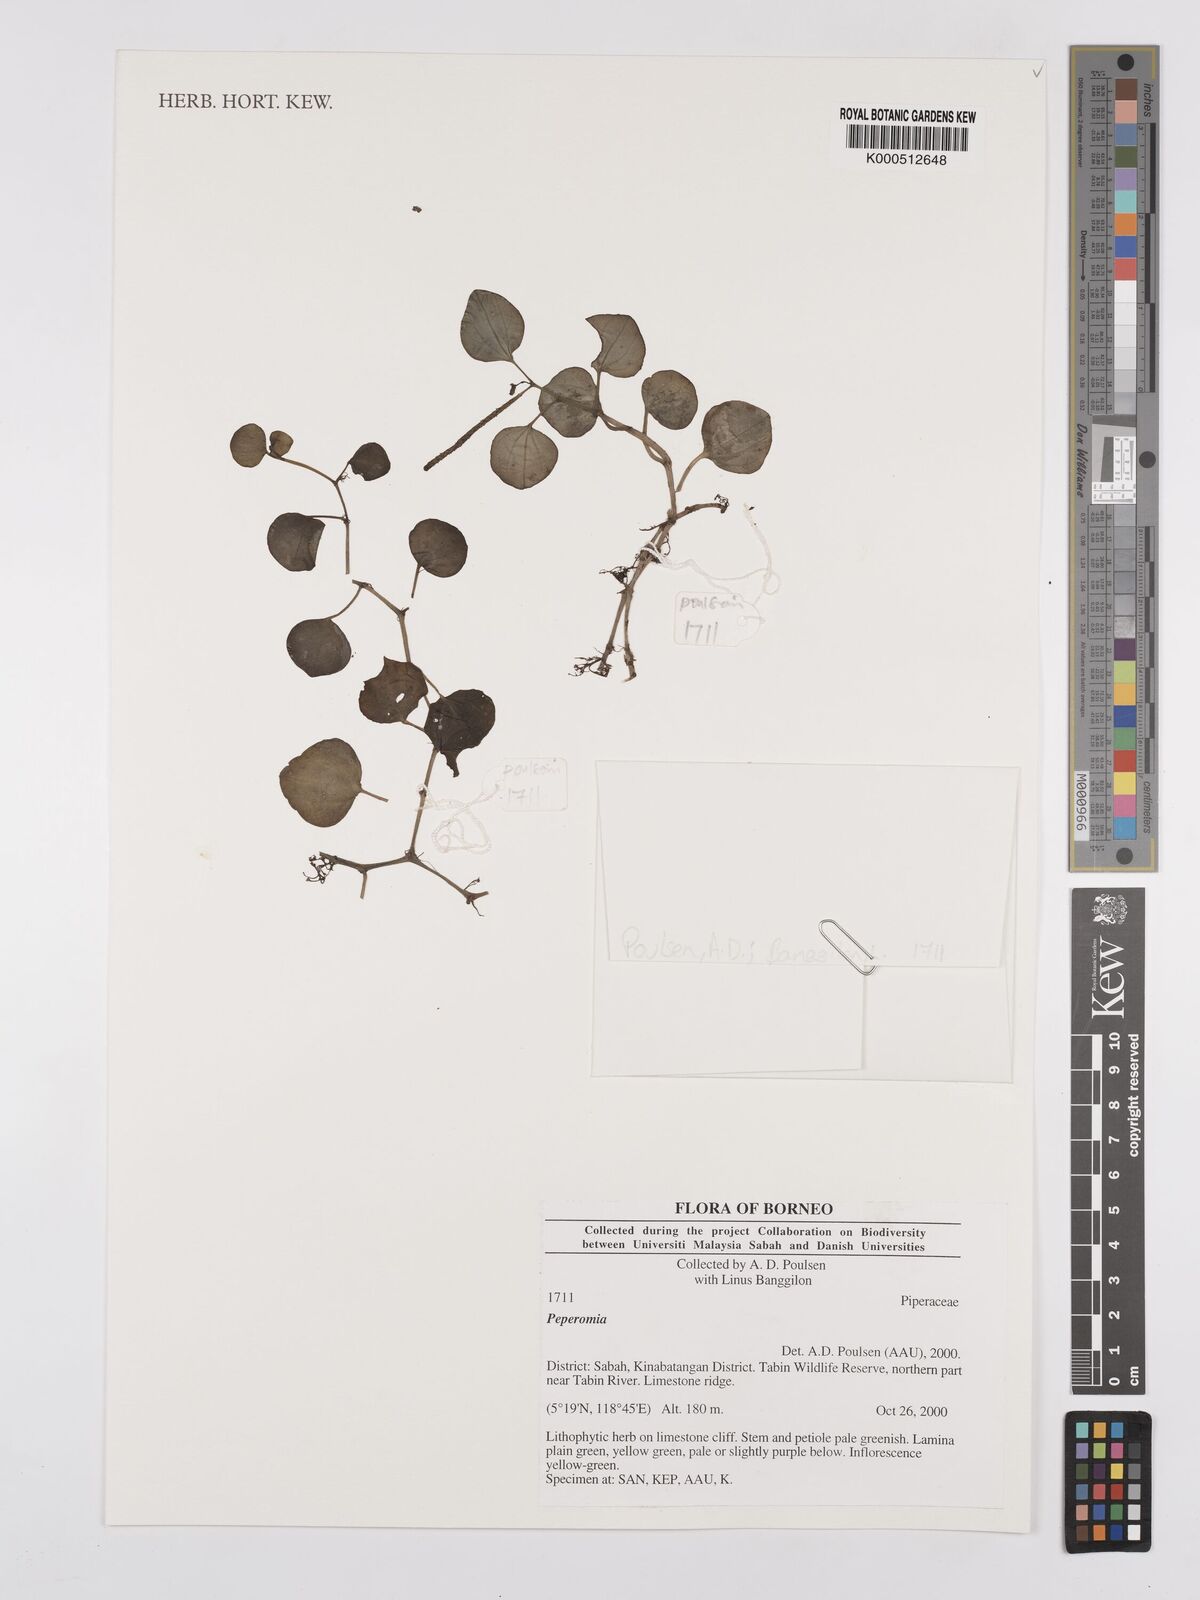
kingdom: Plantae
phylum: Tracheophyta
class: Magnoliopsida
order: Piperales
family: Piperaceae
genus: Peperomia
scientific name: Peperomia
